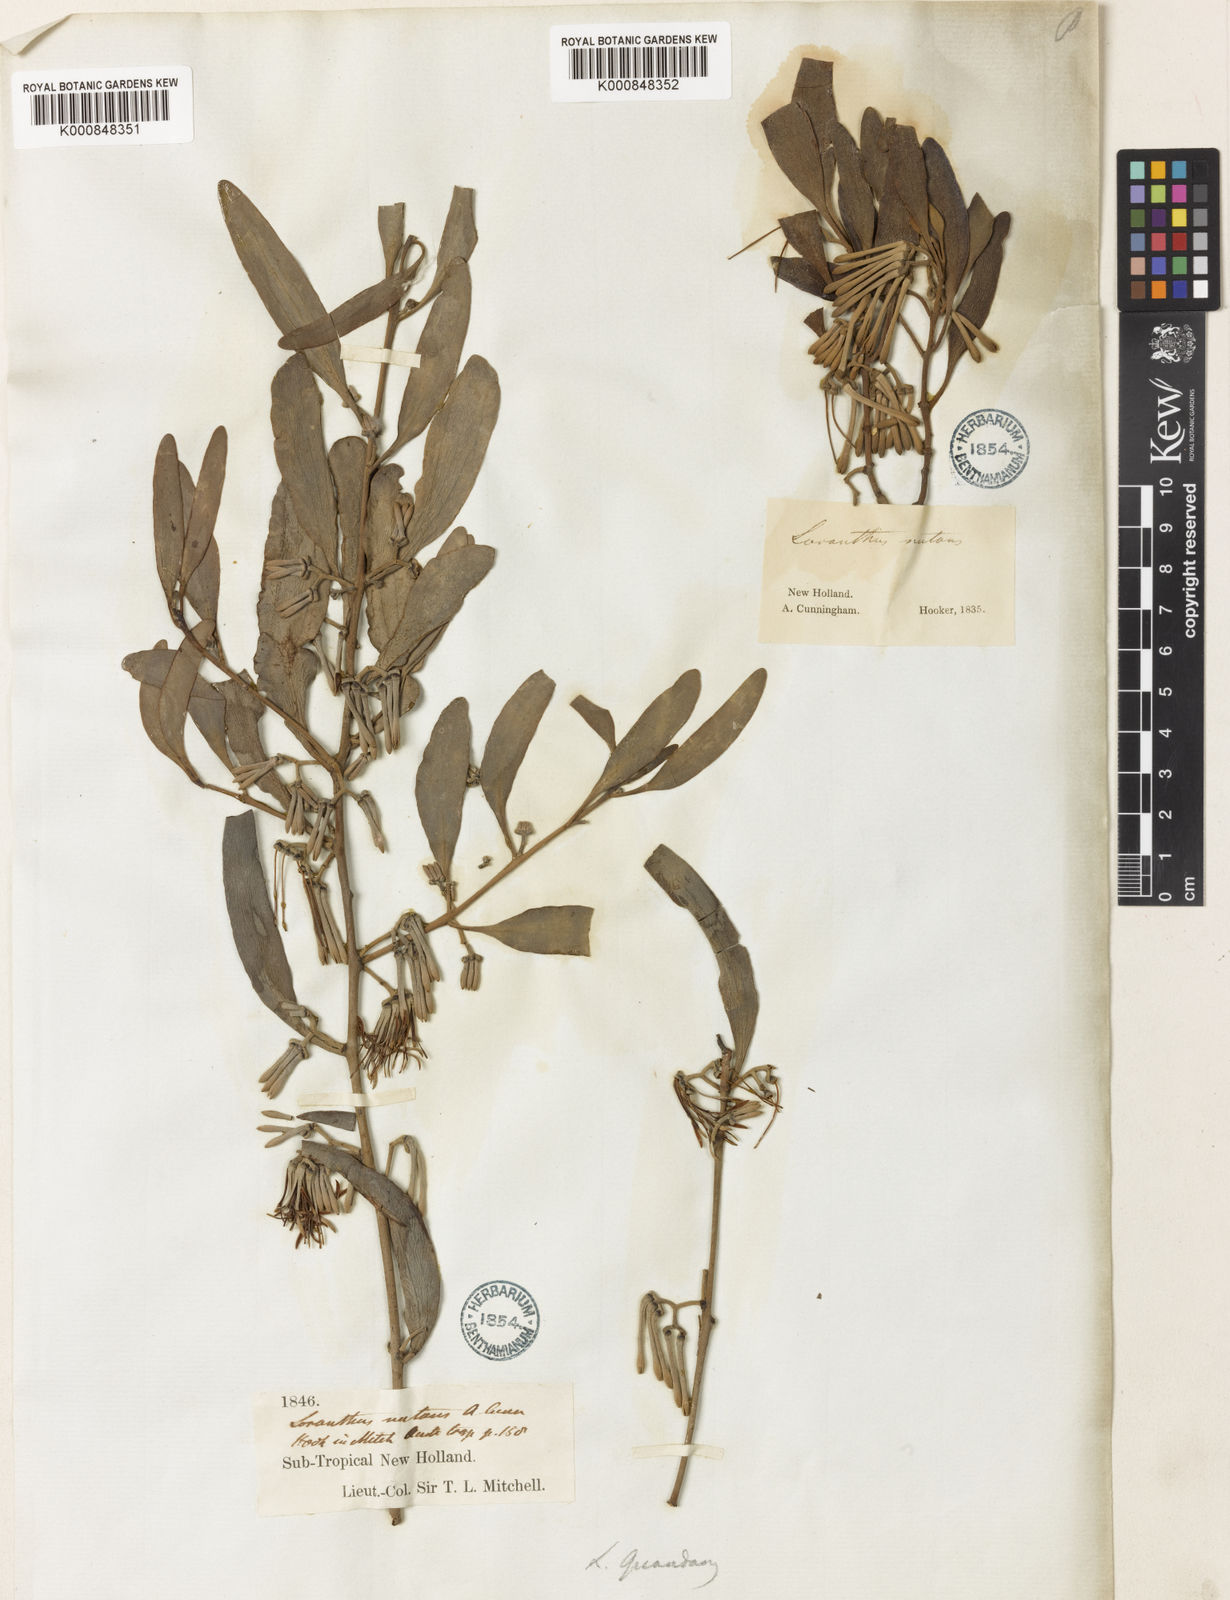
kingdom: Plantae
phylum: Tracheophyta
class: Magnoliopsida
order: Santalales
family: Loranthaceae
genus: Amyema
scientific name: Amyema quandang
